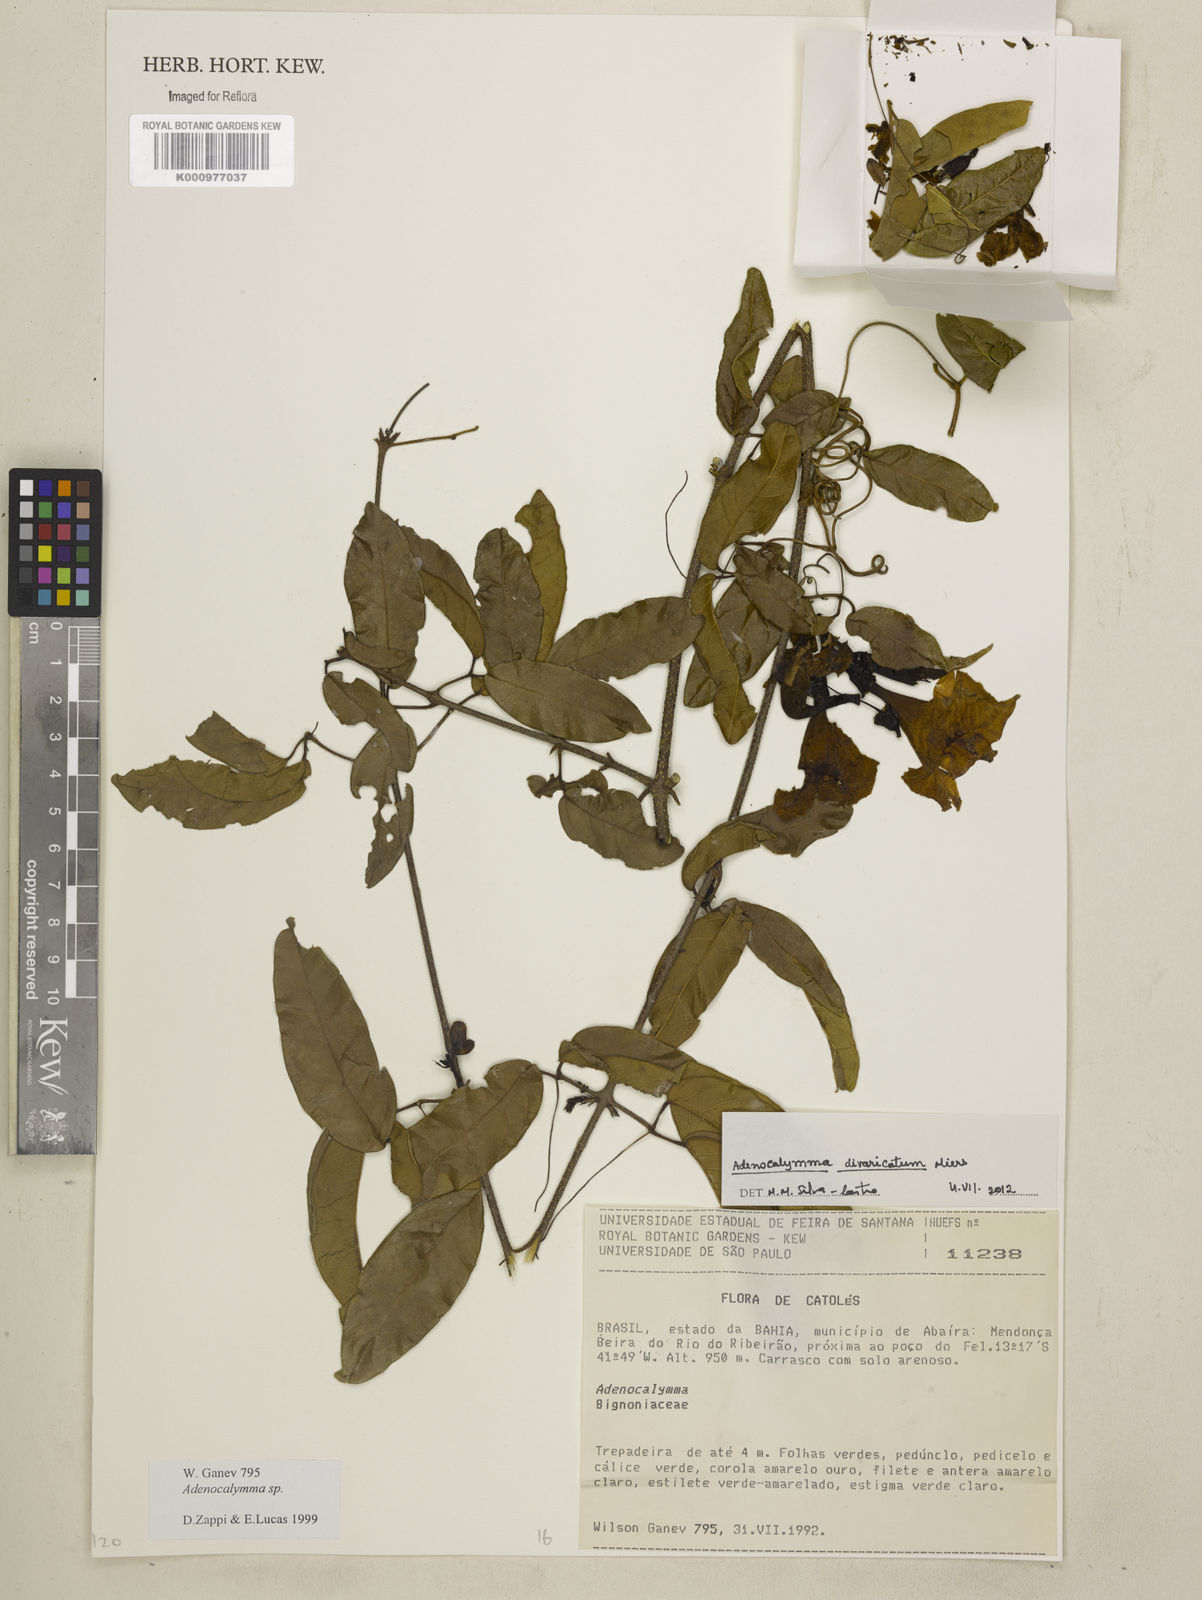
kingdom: Plantae
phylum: Tracheophyta
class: Magnoliopsida
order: Lamiales
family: Bignoniaceae
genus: Adenocalymma
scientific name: Adenocalymma divaricatum
